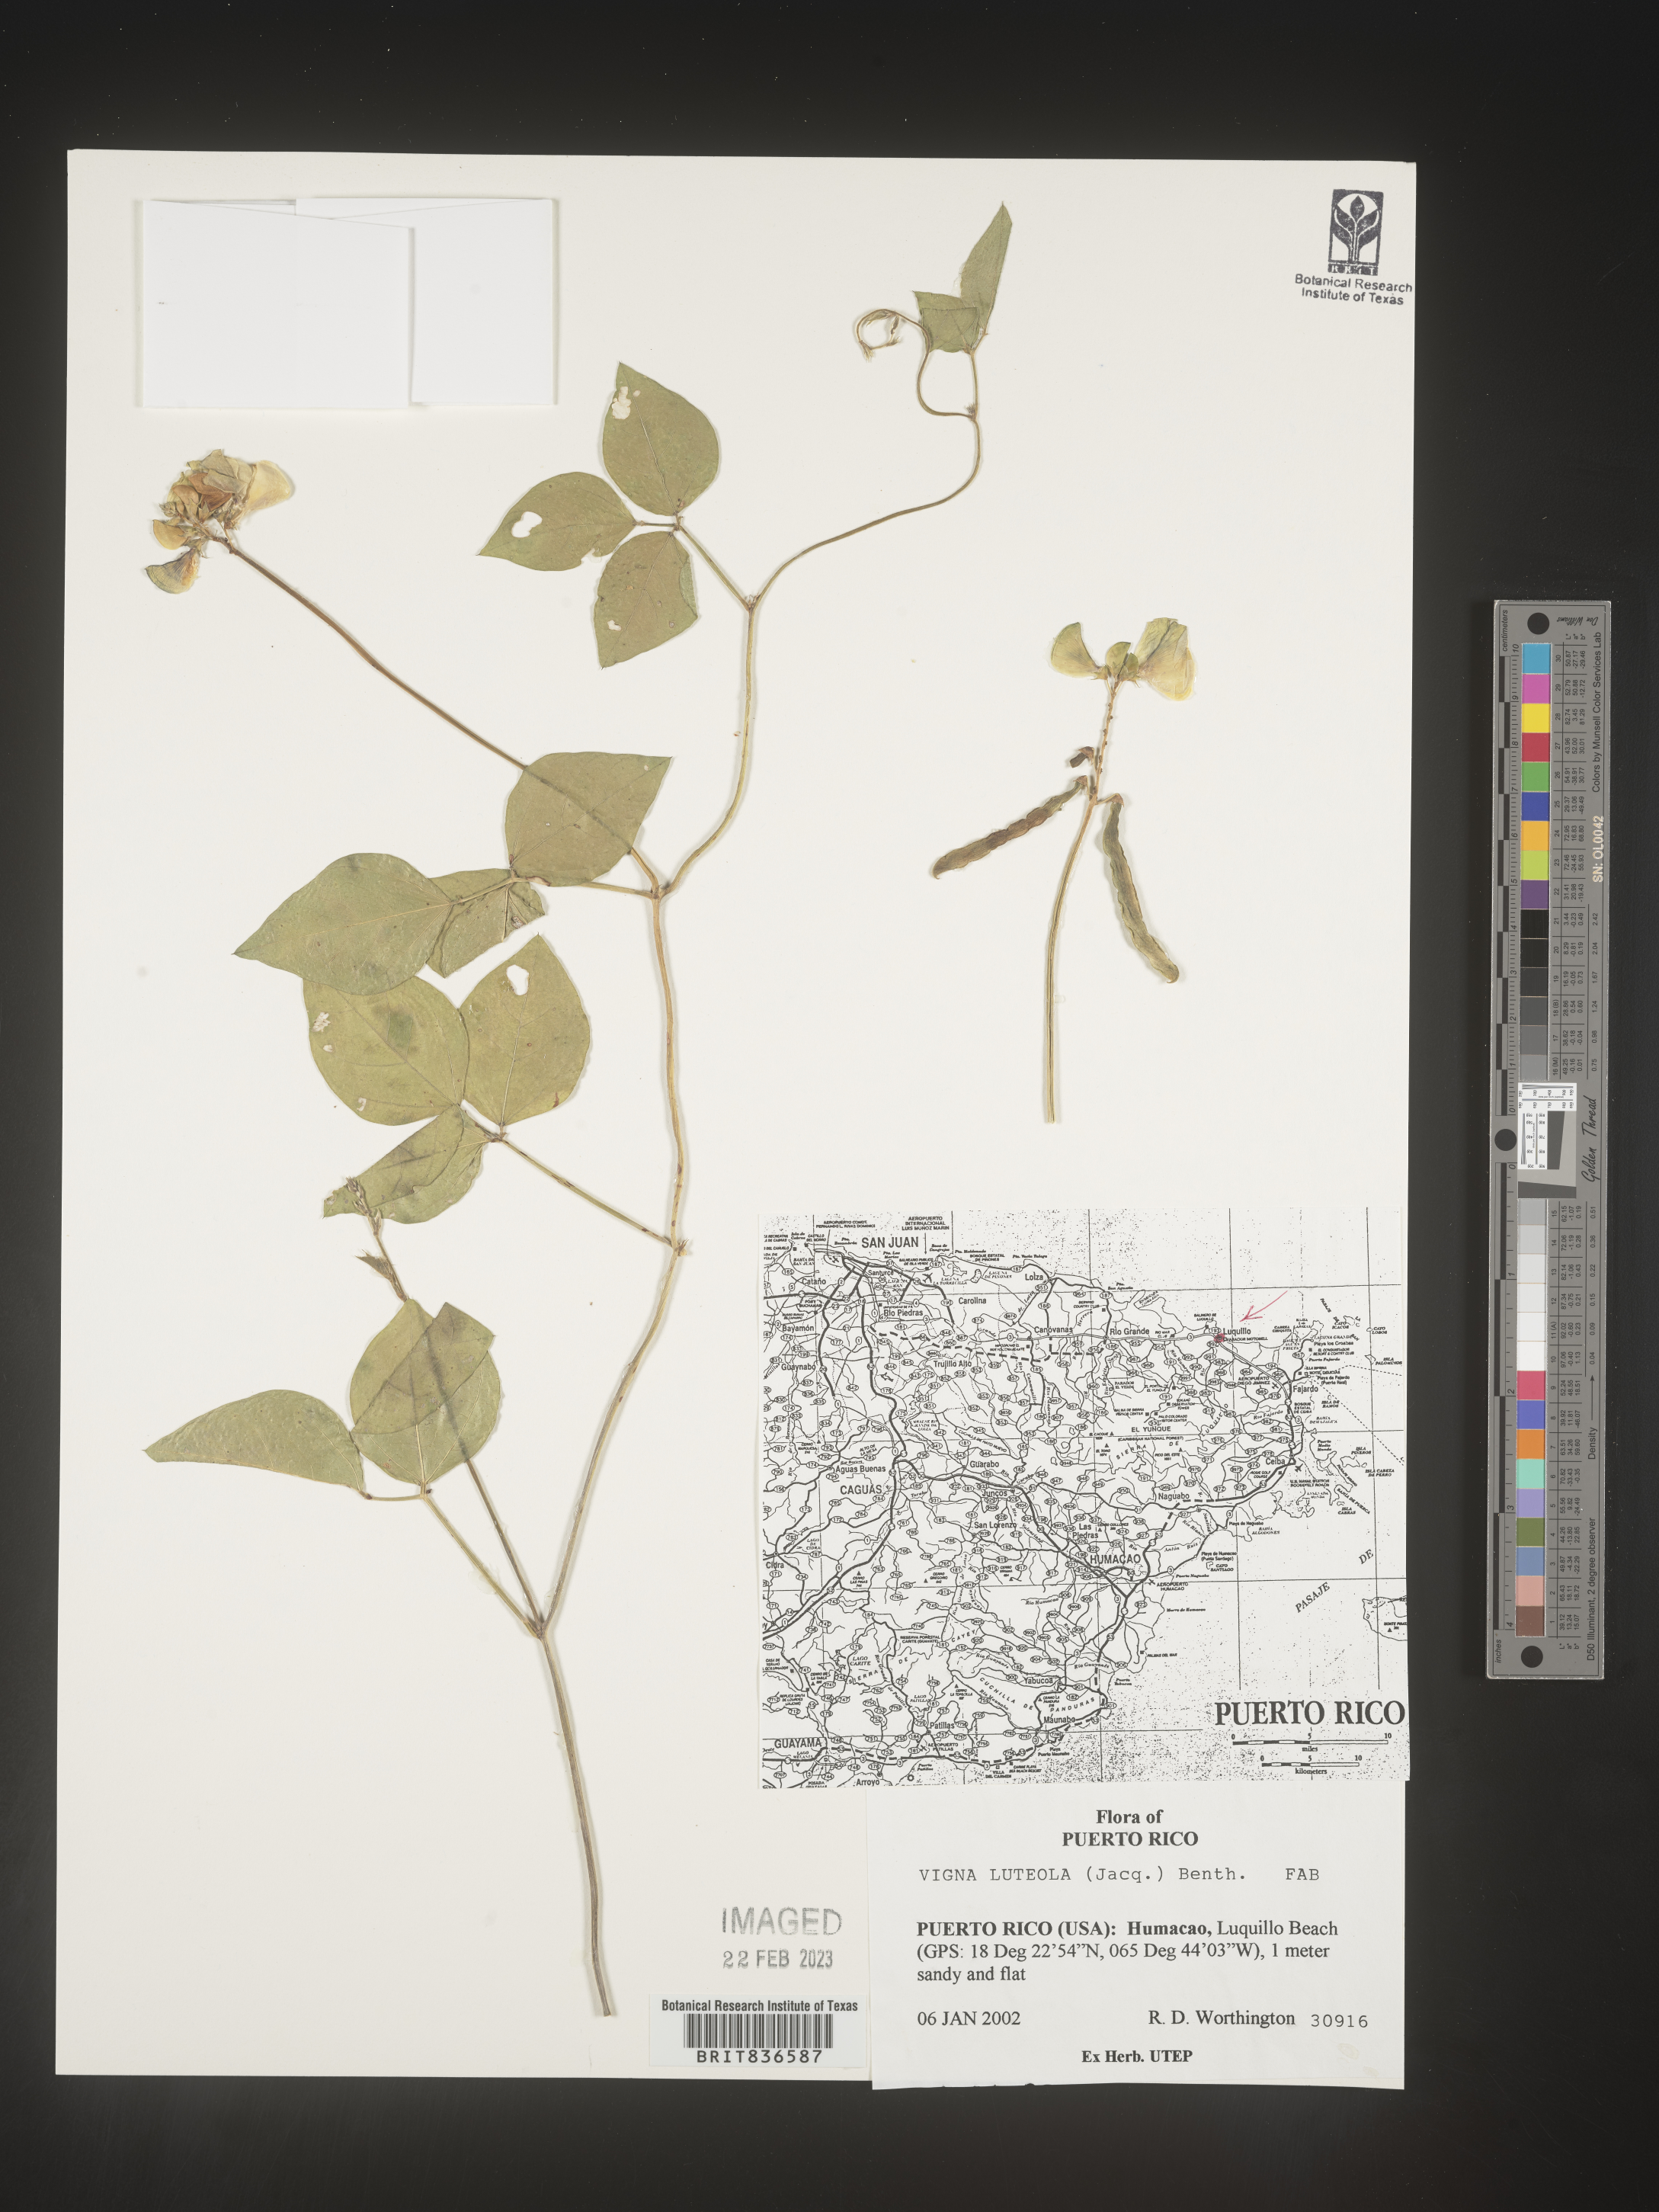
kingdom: Plantae
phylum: Tracheophyta
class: Magnoliopsida
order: Fabales
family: Fabaceae
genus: Vigna
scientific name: Vigna
